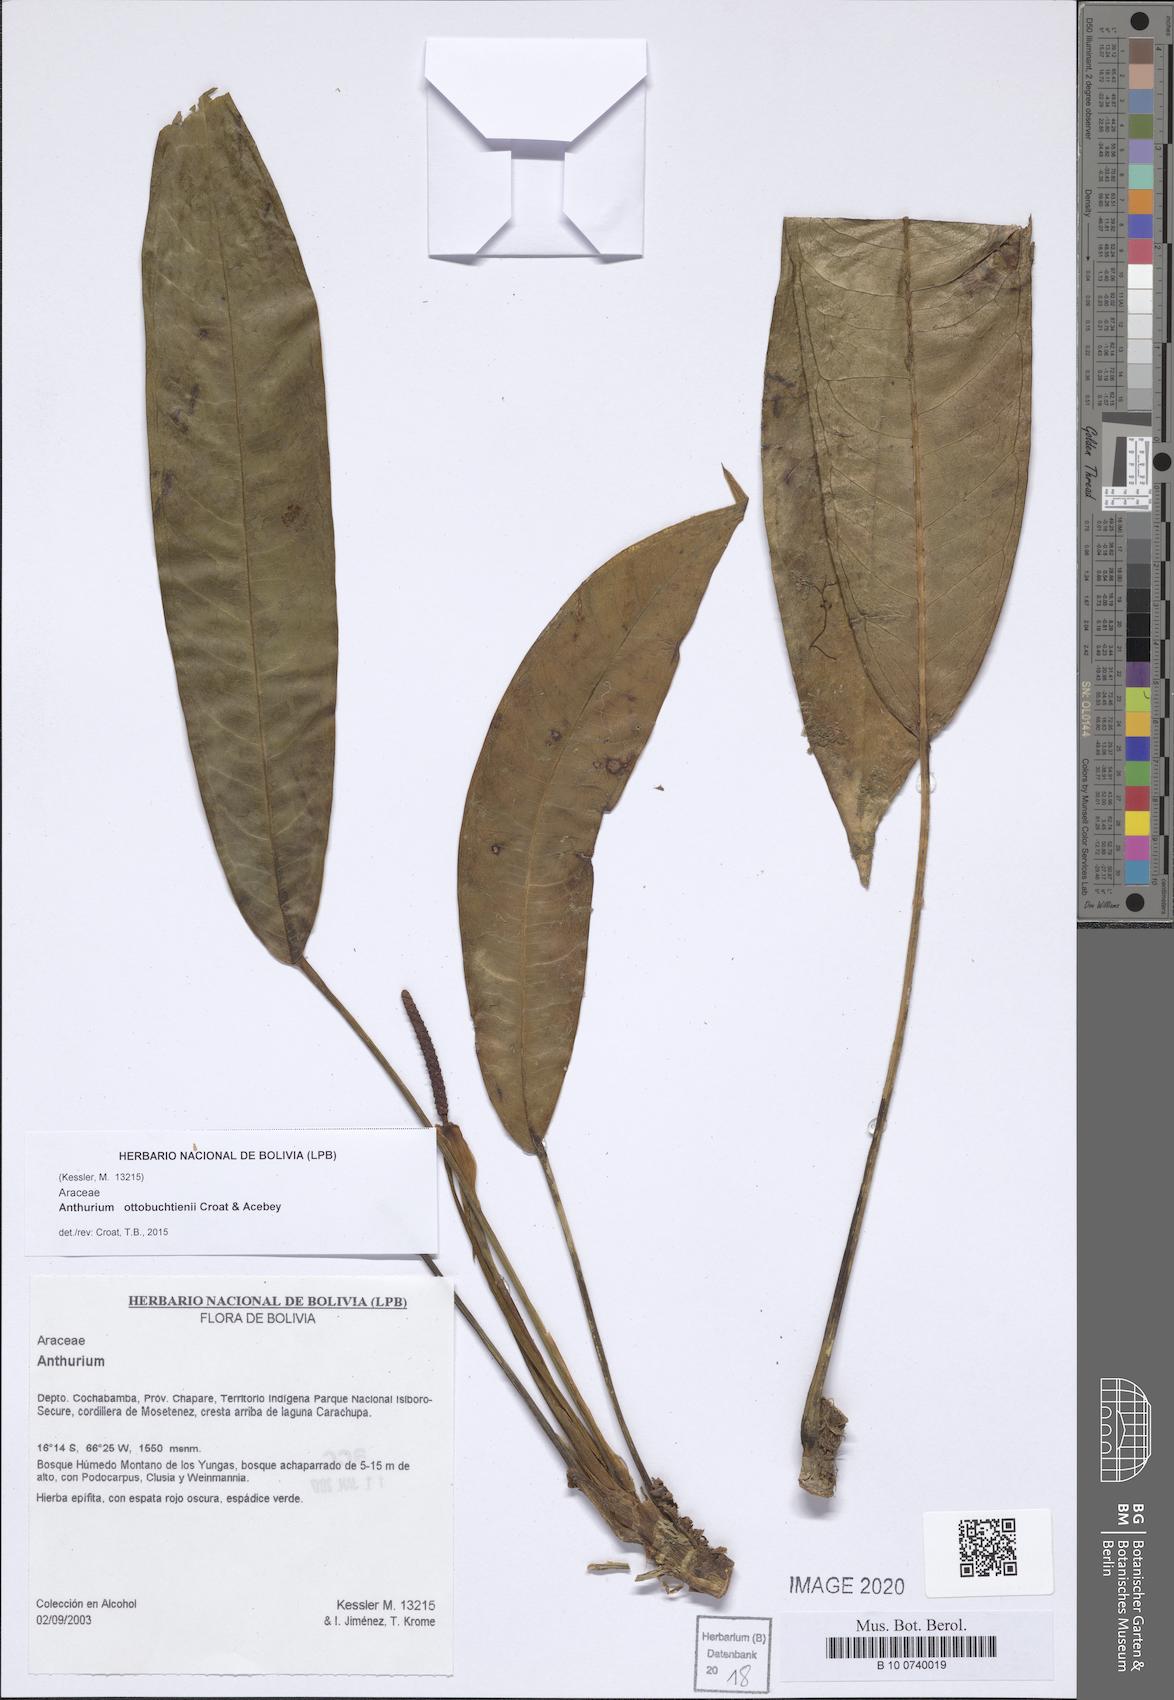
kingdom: Plantae
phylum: Tracheophyta
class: Liliopsida
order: Alismatales
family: Araceae
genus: Anthurium
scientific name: Anthurium ottobuchtienii
